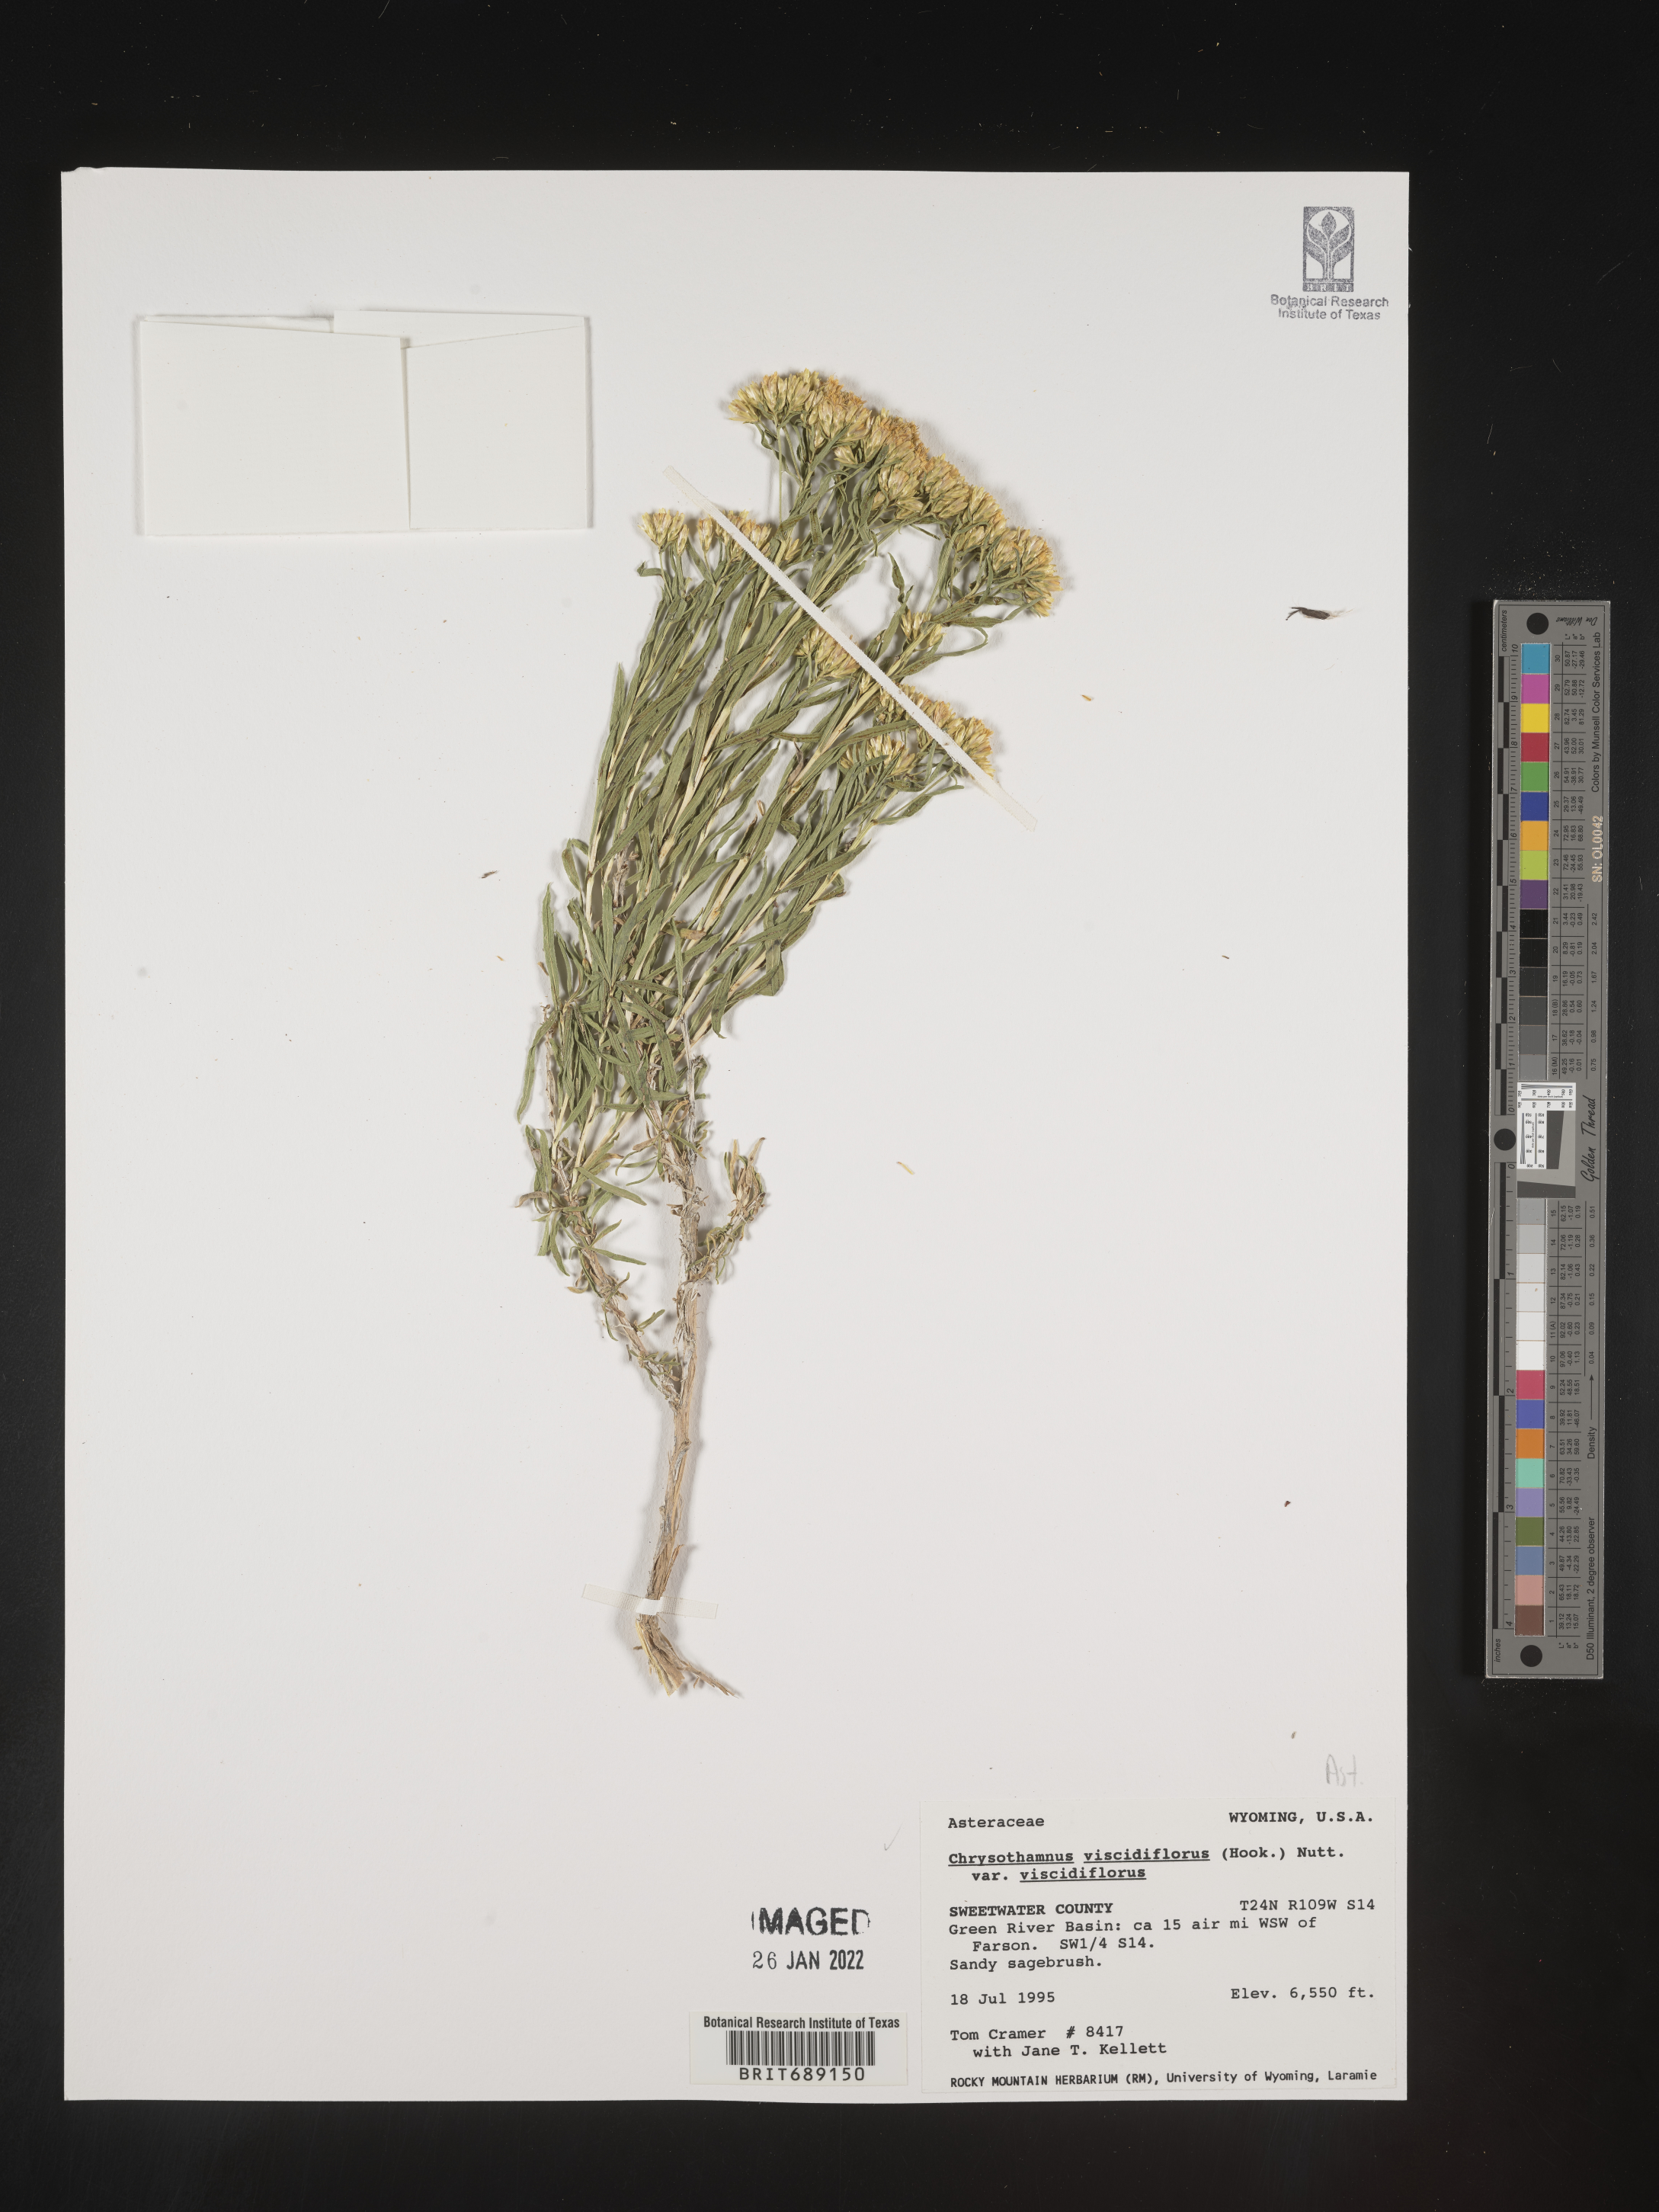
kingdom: Plantae
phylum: Tracheophyta
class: Magnoliopsida
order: Asterales
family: Asteraceae
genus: Chrysothamnus
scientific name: Chrysothamnus viscidiflorus
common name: Yellow rabbitbrush
